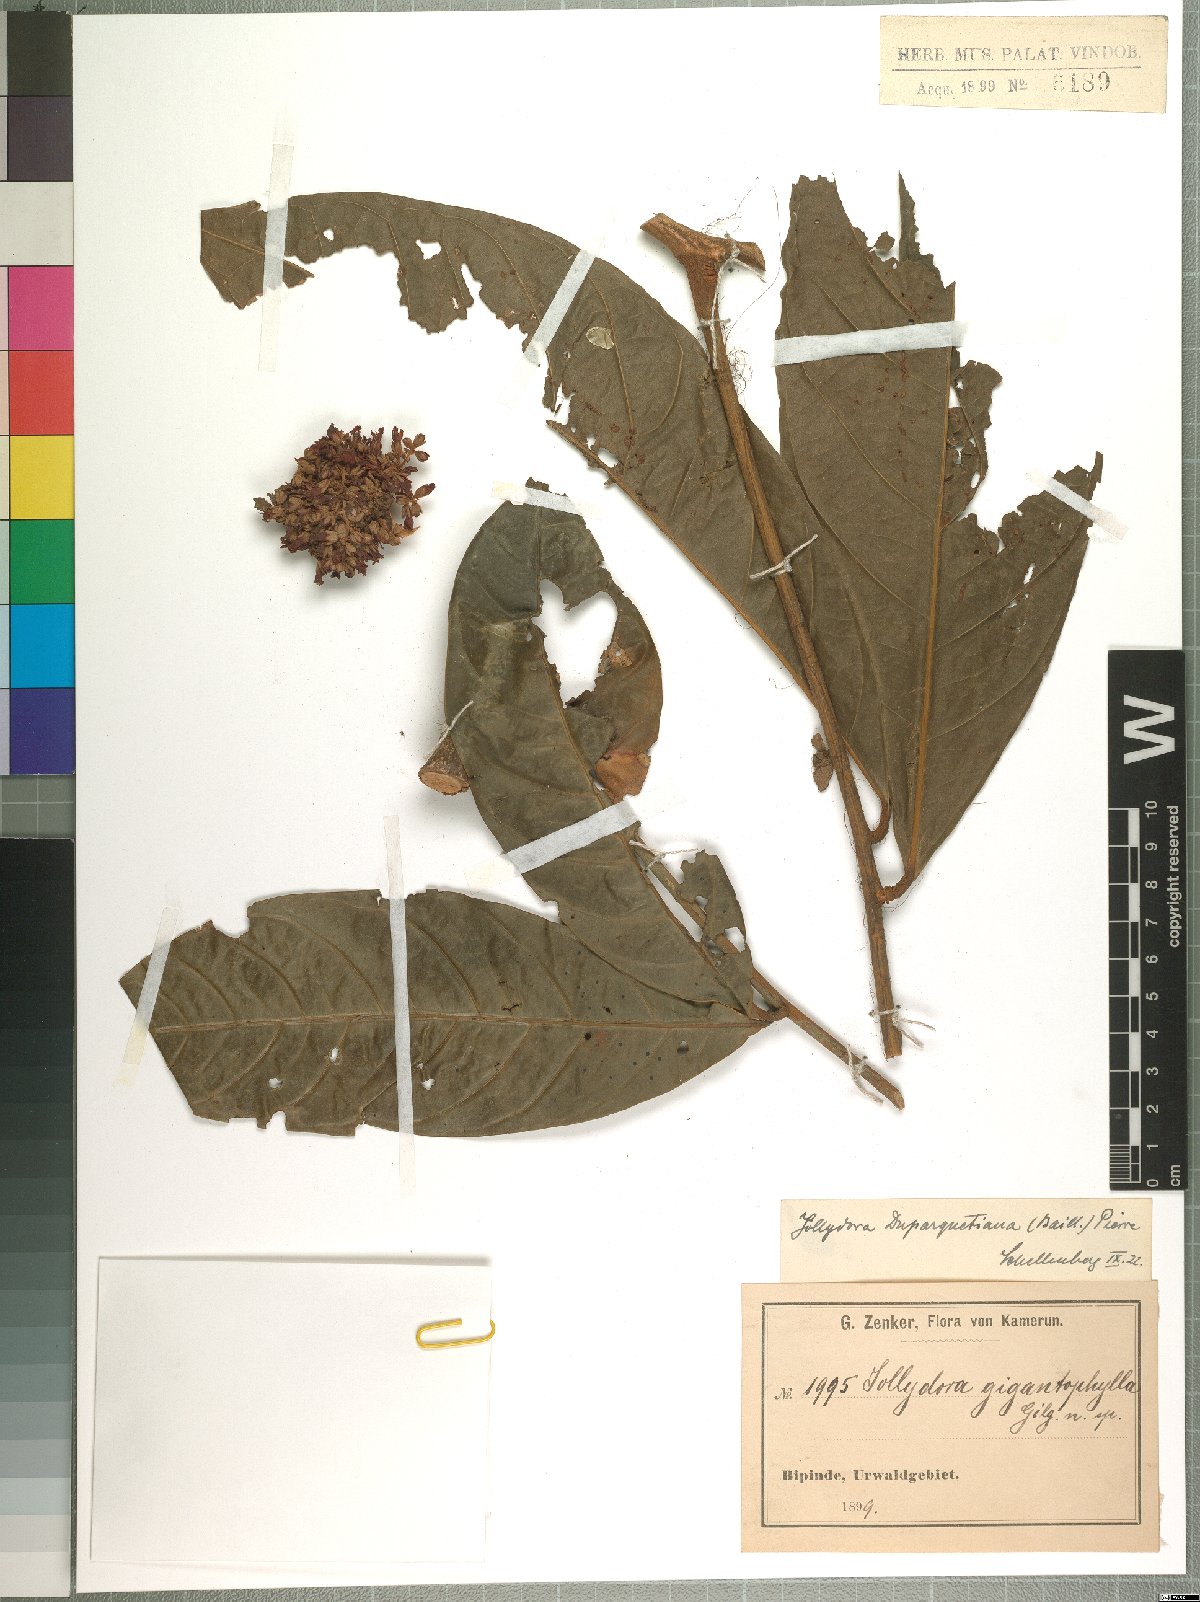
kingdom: Plantae
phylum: Tracheophyta
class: Magnoliopsida
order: Oxalidales
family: Connaraceae
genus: Jollydora
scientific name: Jollydora duparquetiana
